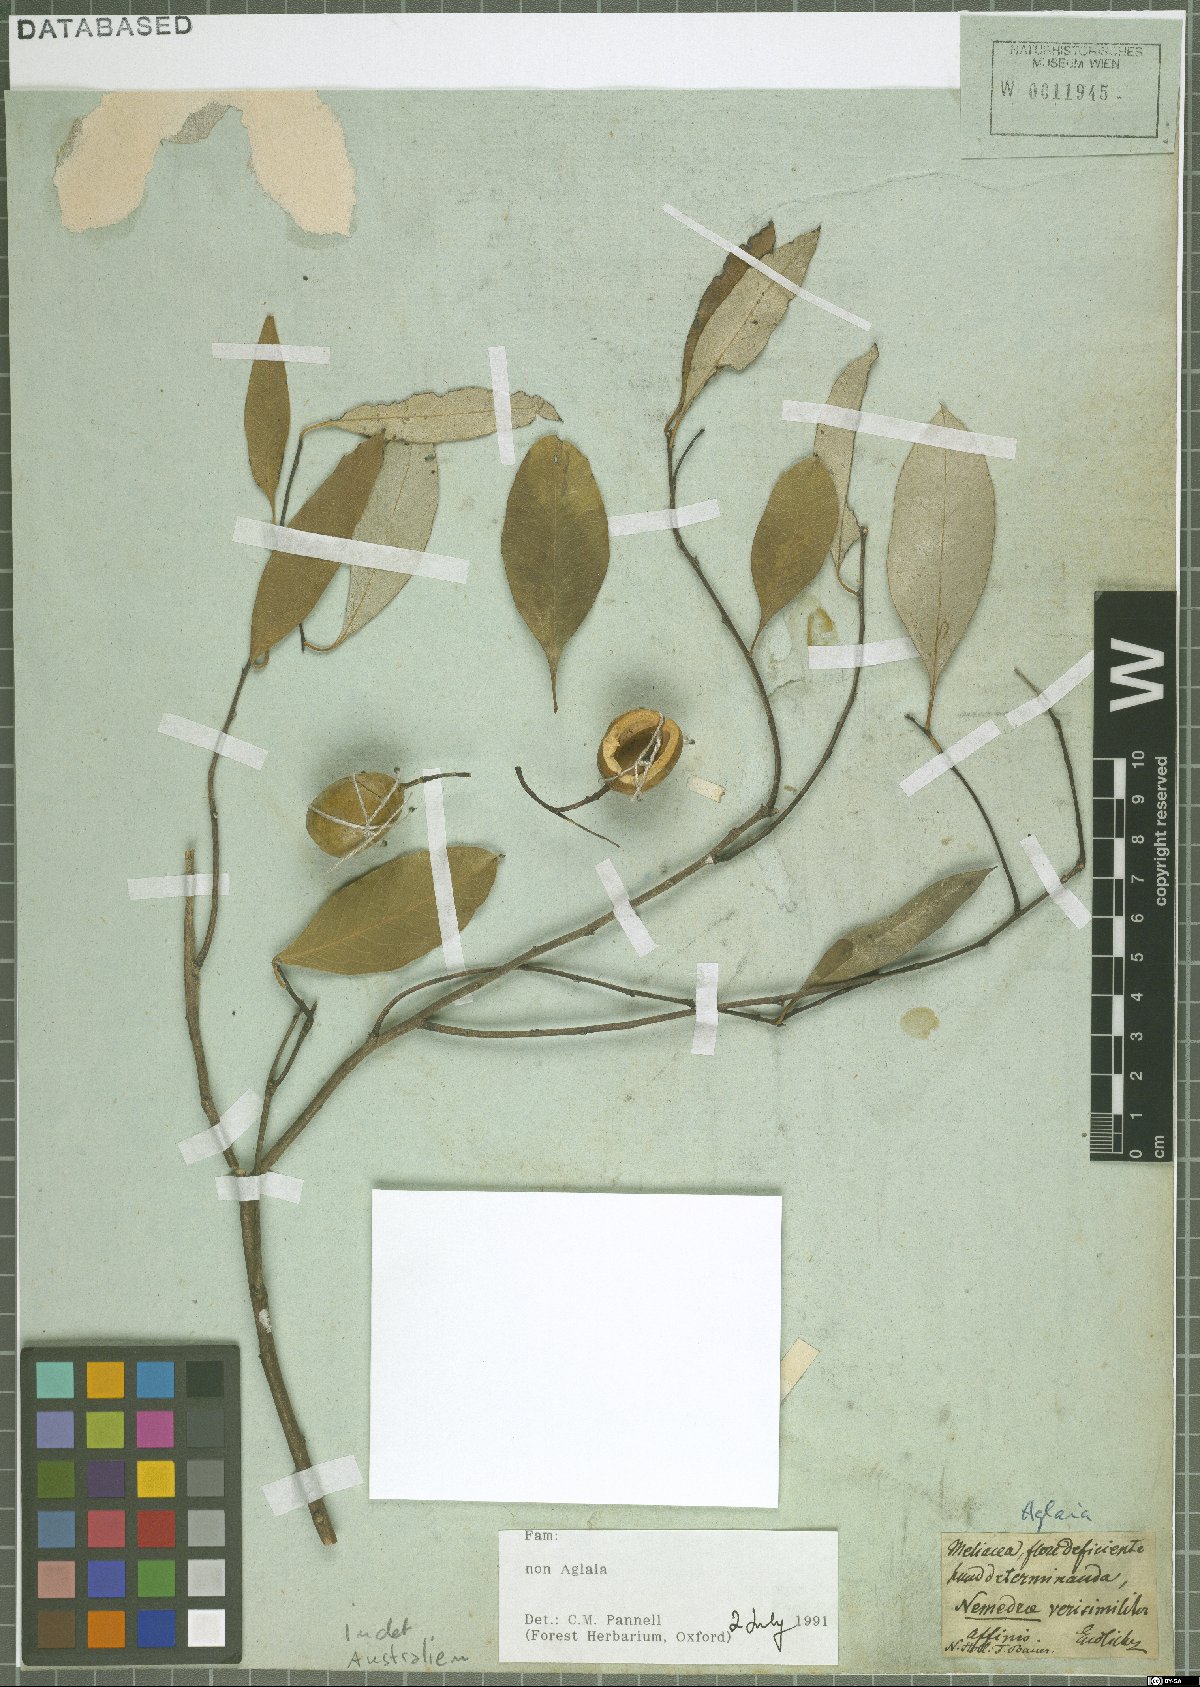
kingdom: Plantae
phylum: Tracheophyta
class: Magnoliopsida
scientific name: Magnoliopsida
